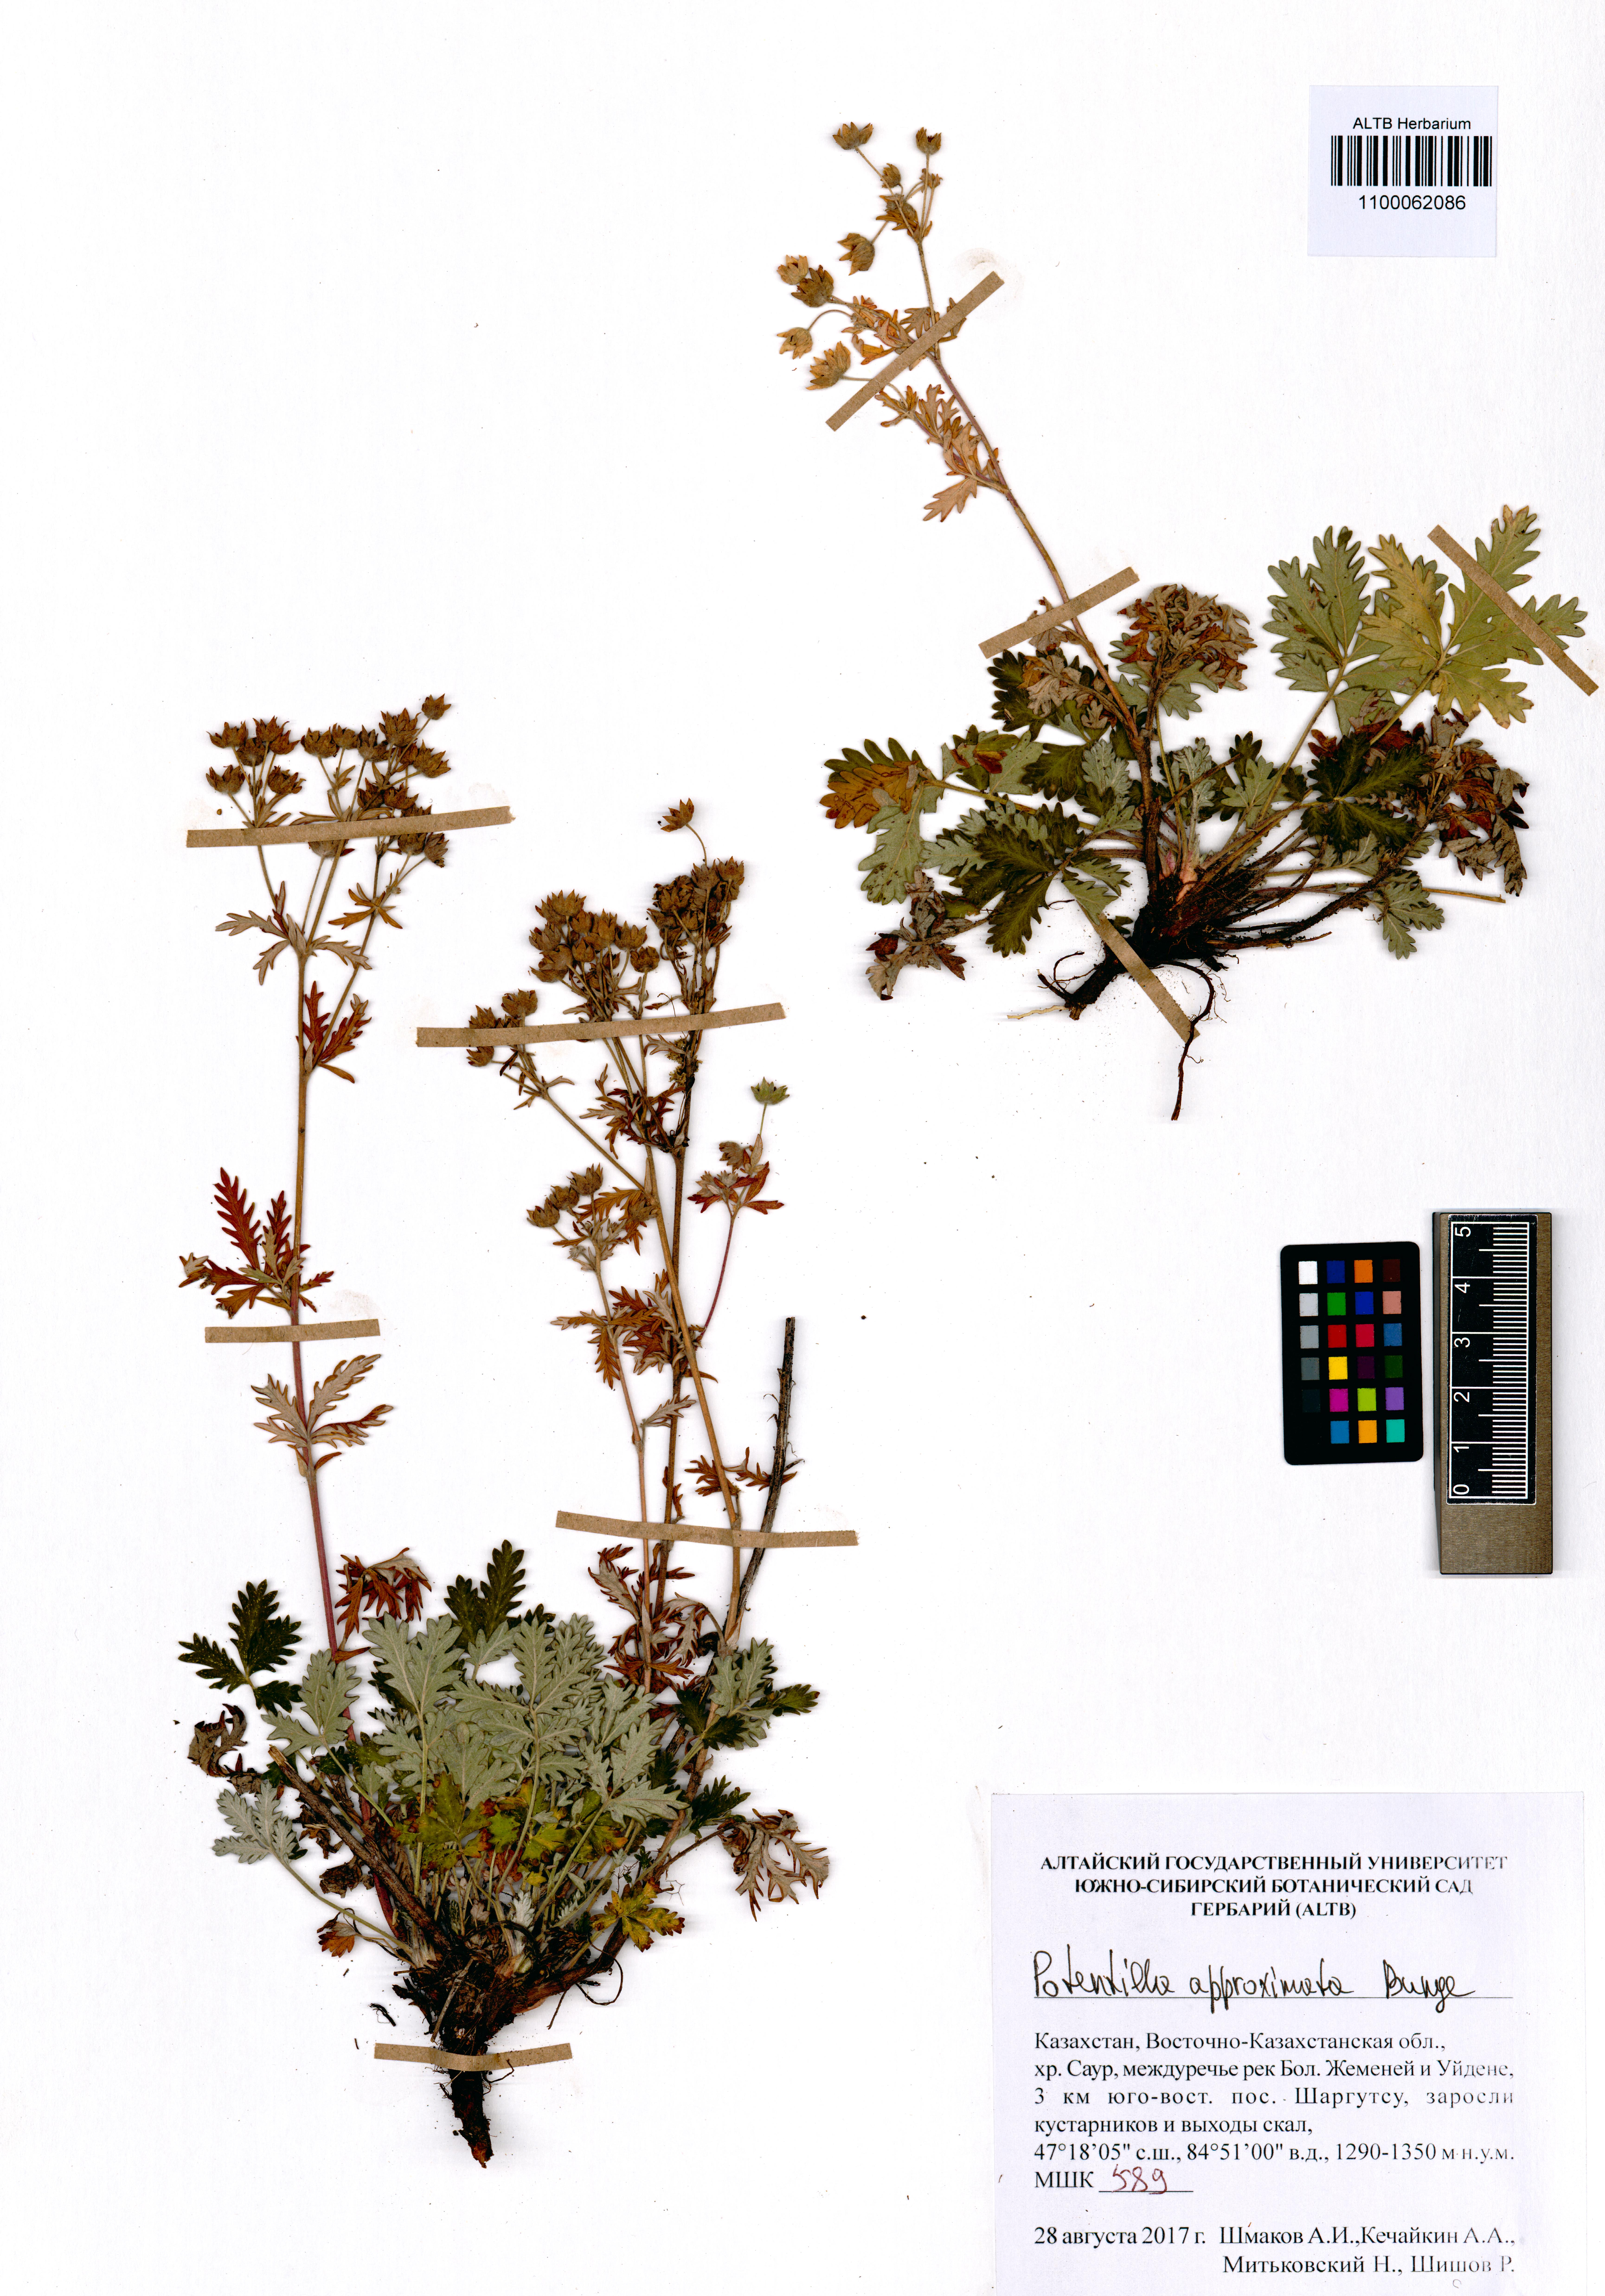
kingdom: Plantae
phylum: Tracheophyta
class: Magnoliopsida
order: Rosales
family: Rosaceae
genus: Potentilla
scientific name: Potentilla conferta
